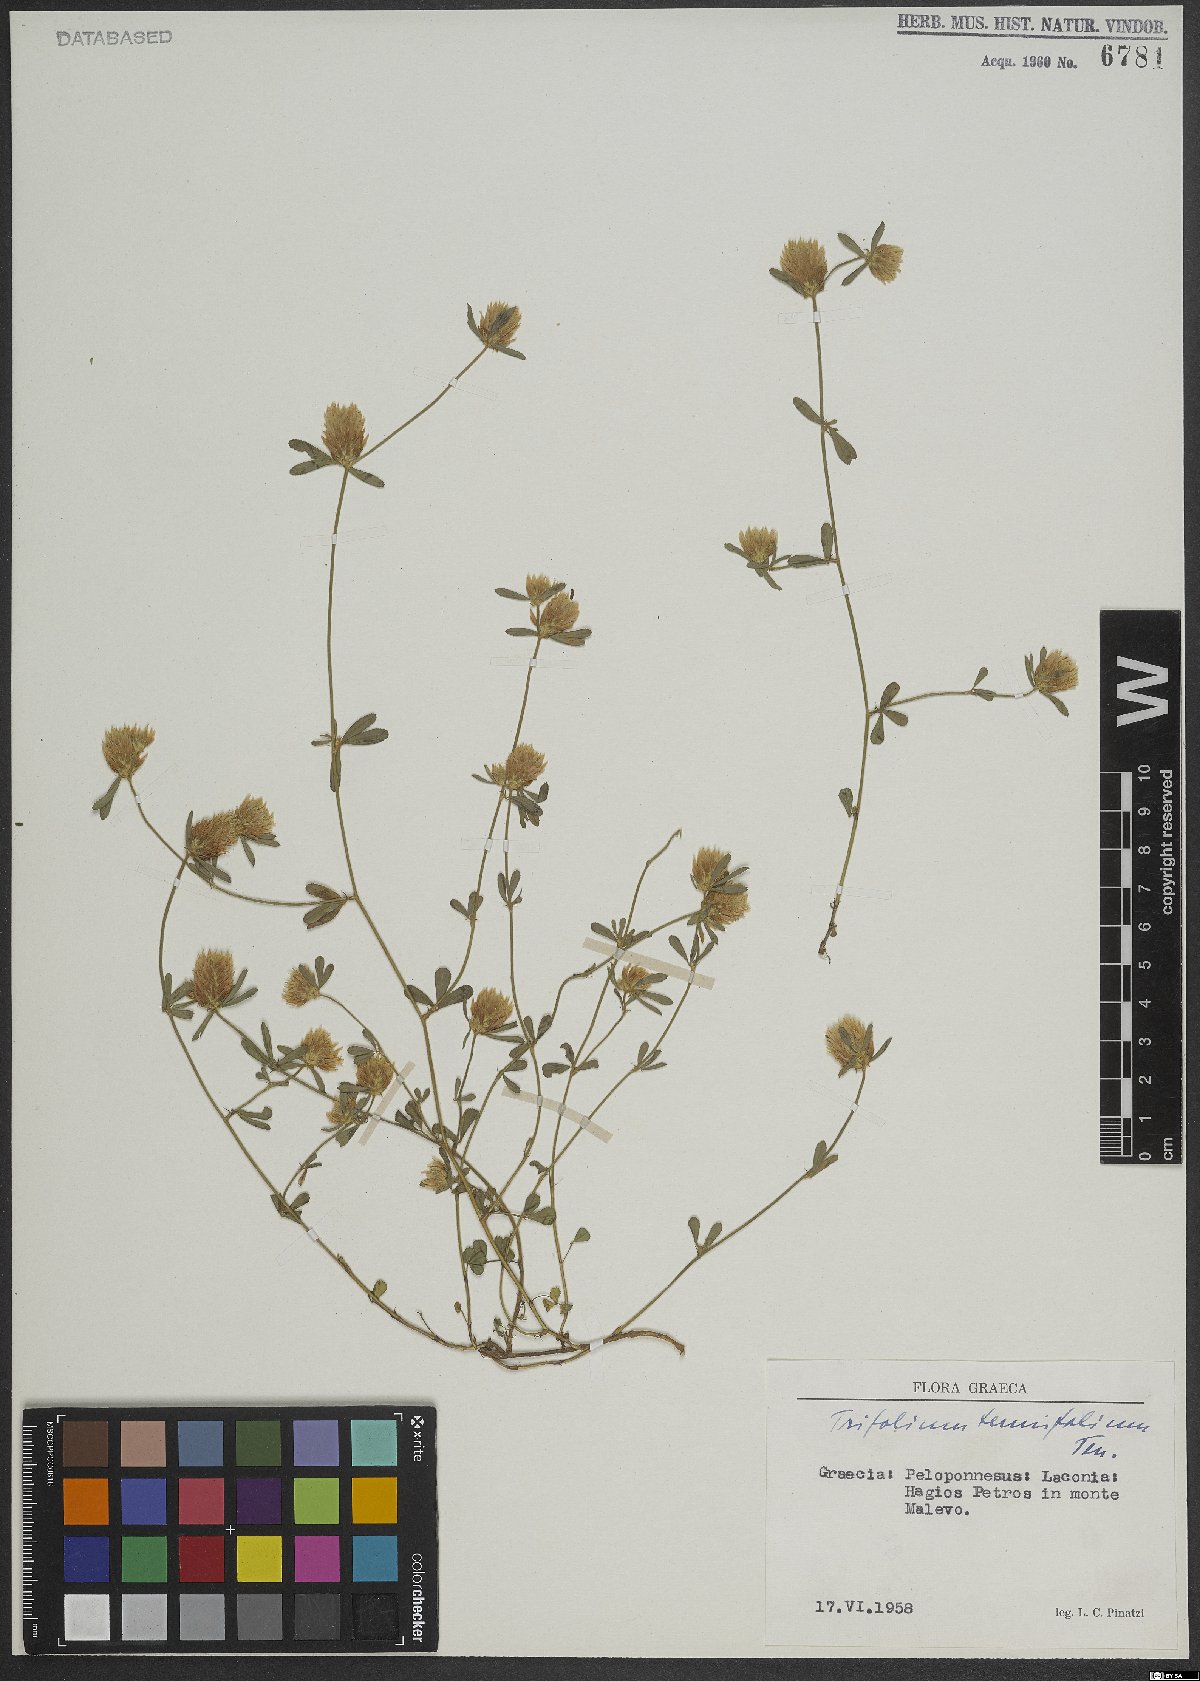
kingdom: Plantae
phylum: Tracheophyta
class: Magnoliopsida
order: Fabales
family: Fabaceae
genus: Trifolium
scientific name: Trifolium tenuifolium
